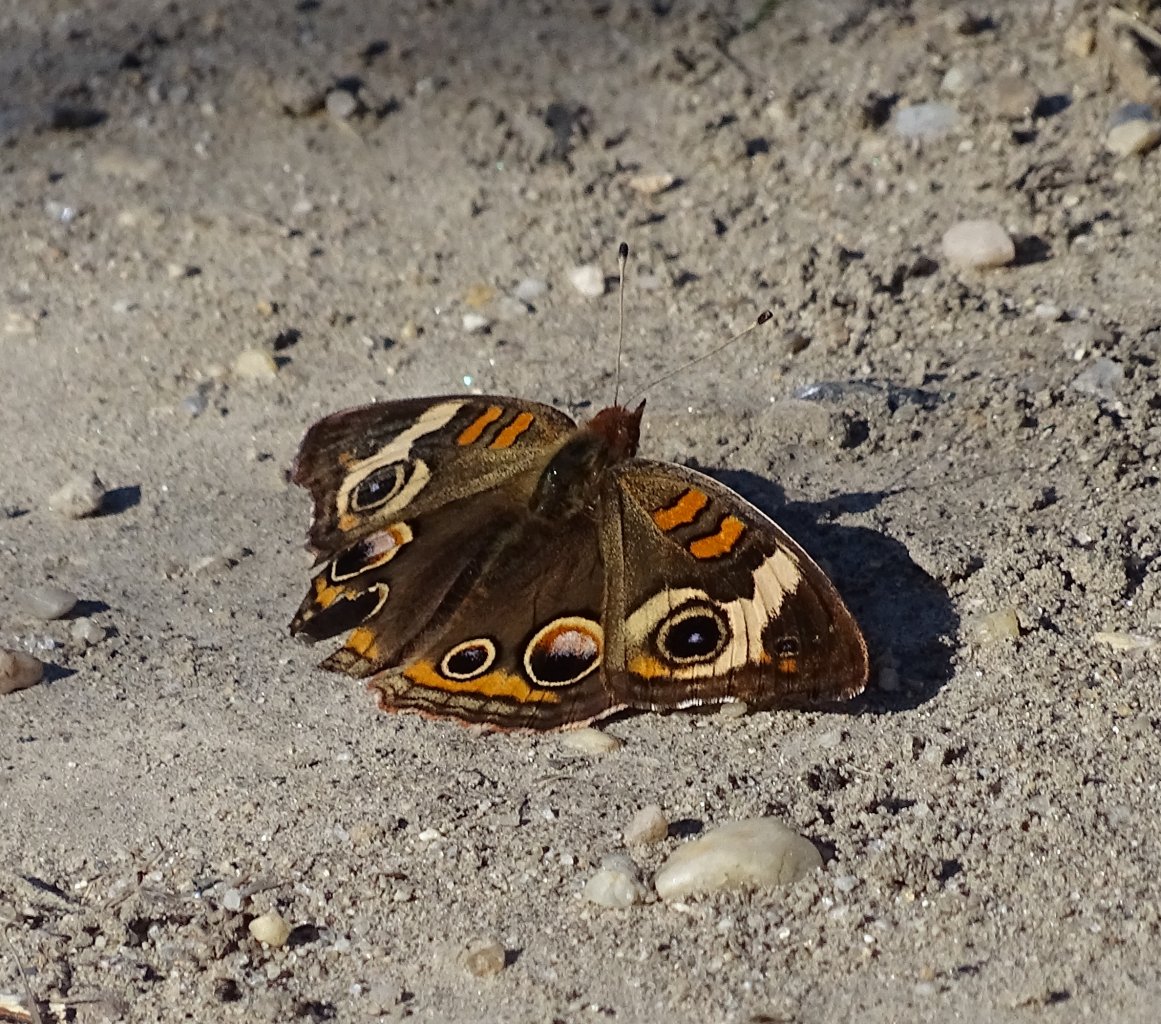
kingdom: Animalia
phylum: Arthropoda
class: Insecta
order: Lepidoptera
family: Nymphalidae
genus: Junonia
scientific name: Junonia coenia
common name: Common Buckeye
